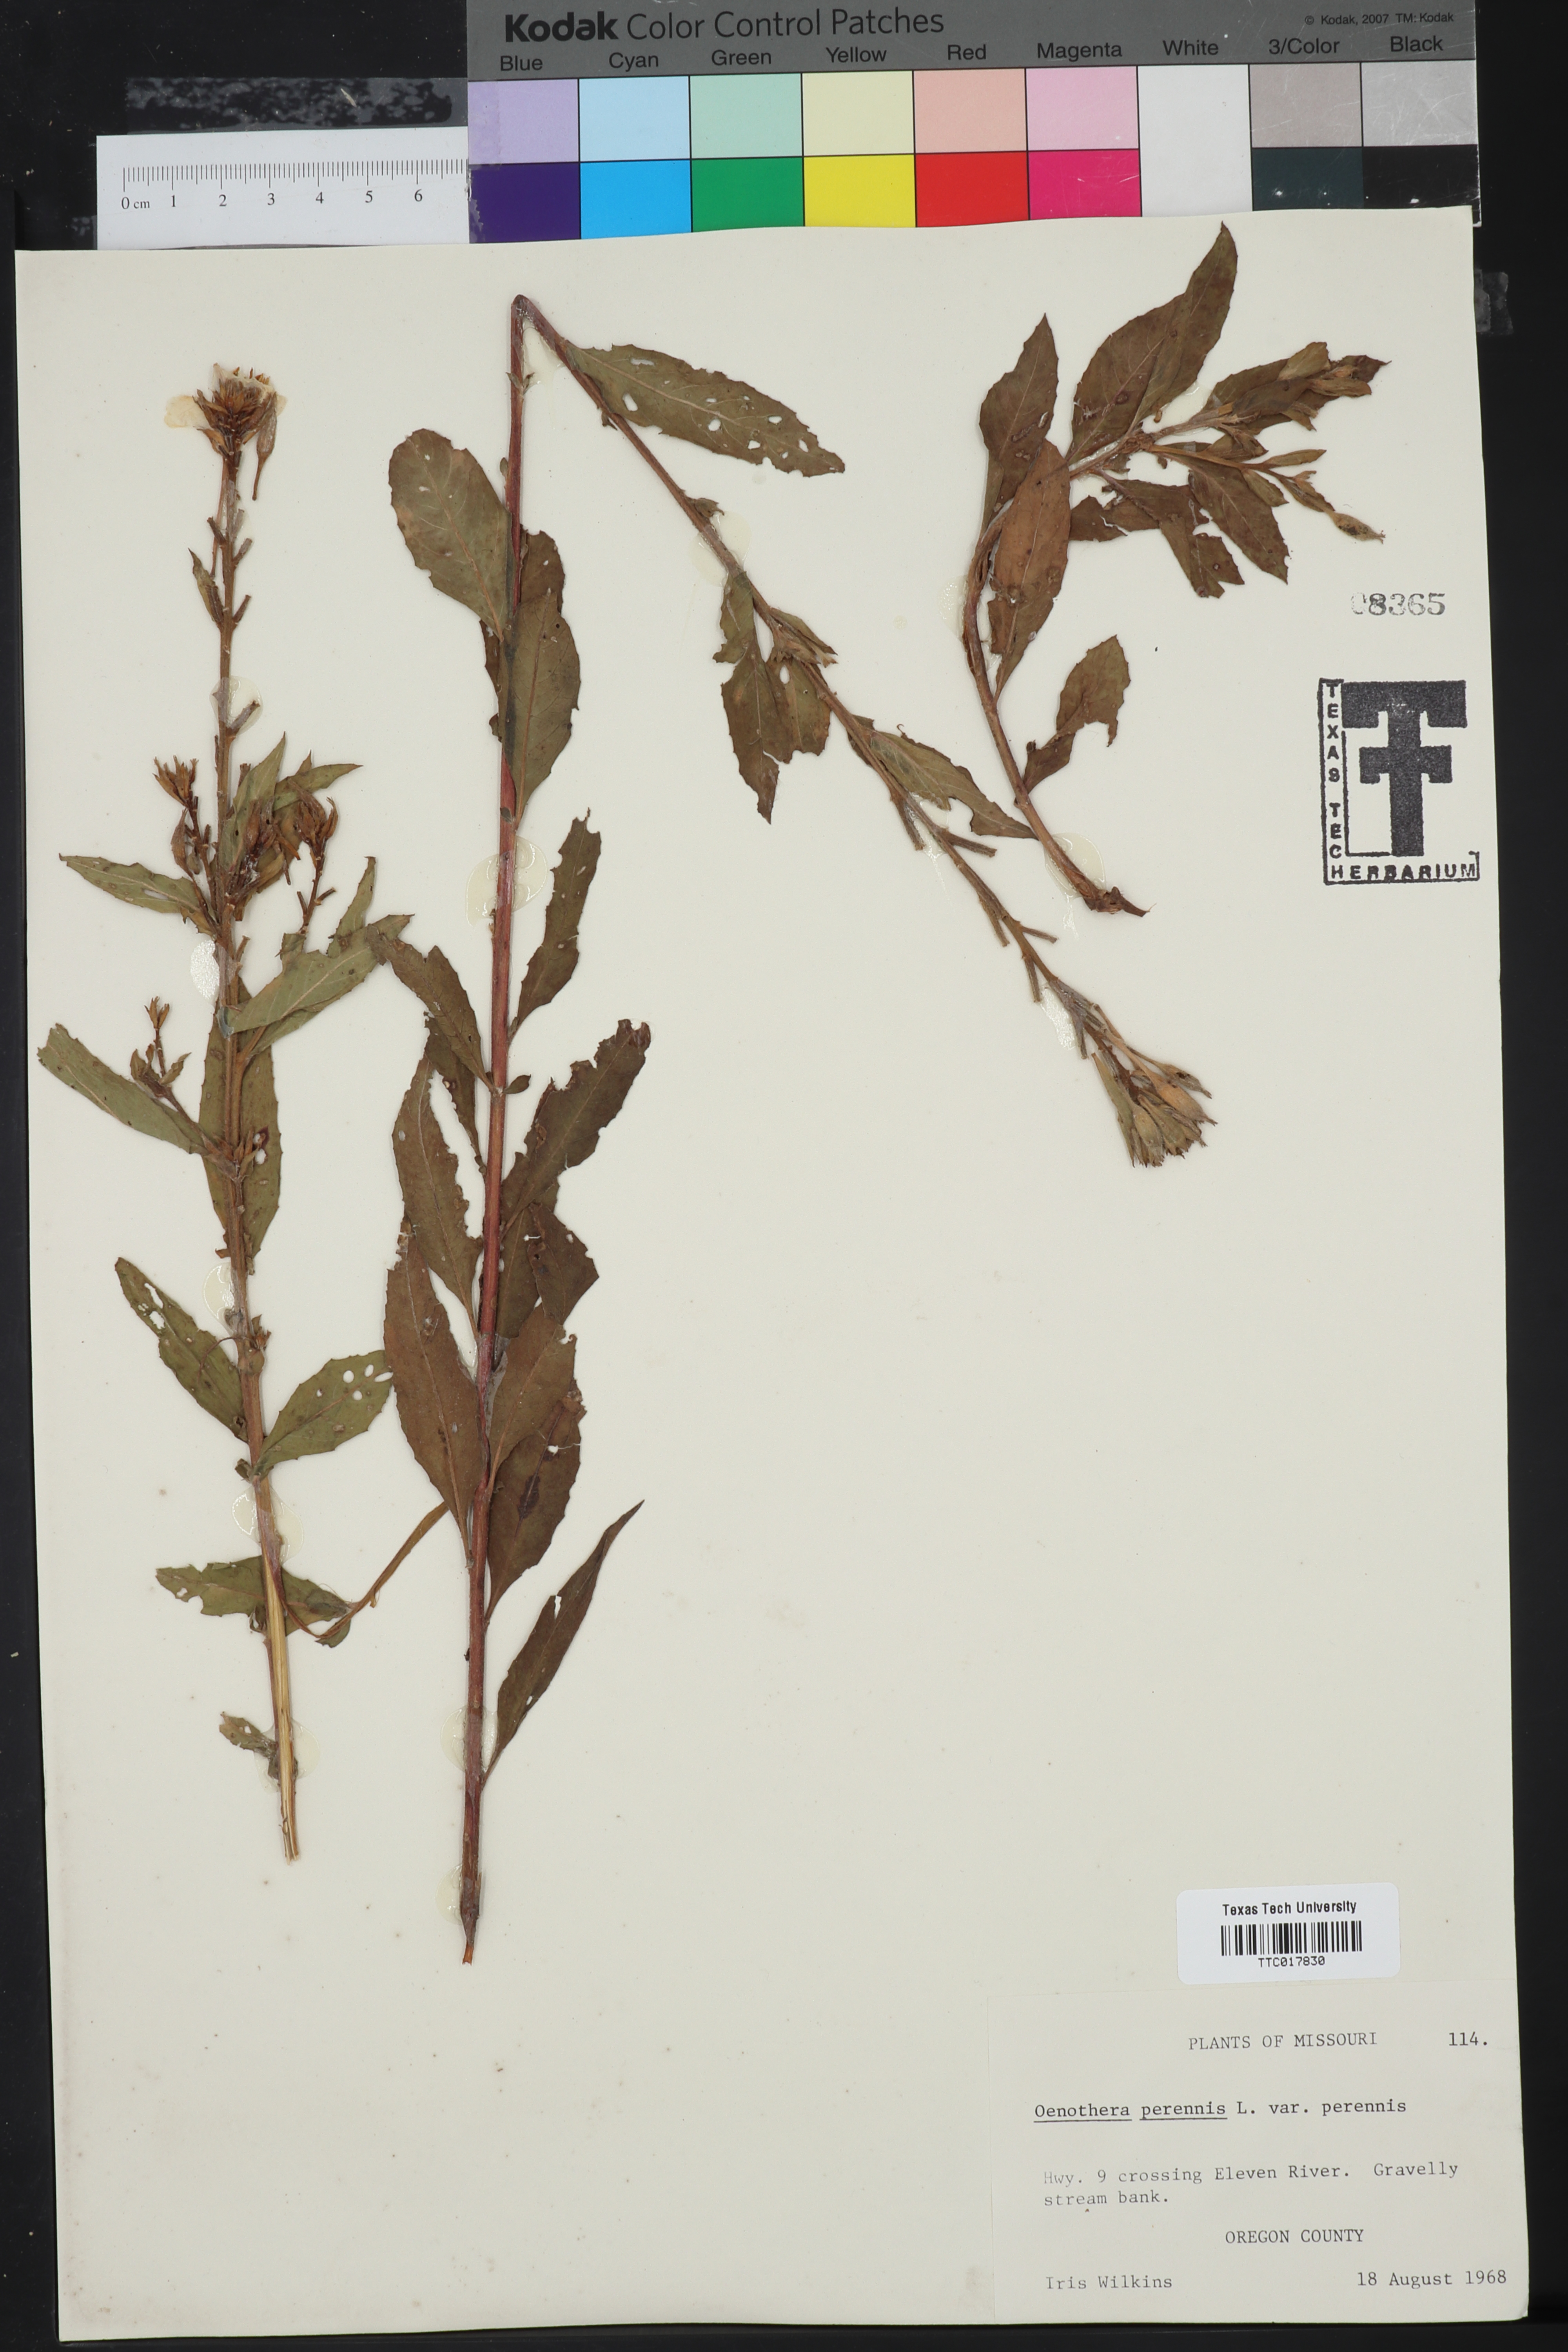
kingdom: Plantae
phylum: Tracheophyta
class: Magnoliopsida
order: Myrtales
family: Onagraceae
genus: Oenothera
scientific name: Oenothera perennis
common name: Small sundrops
